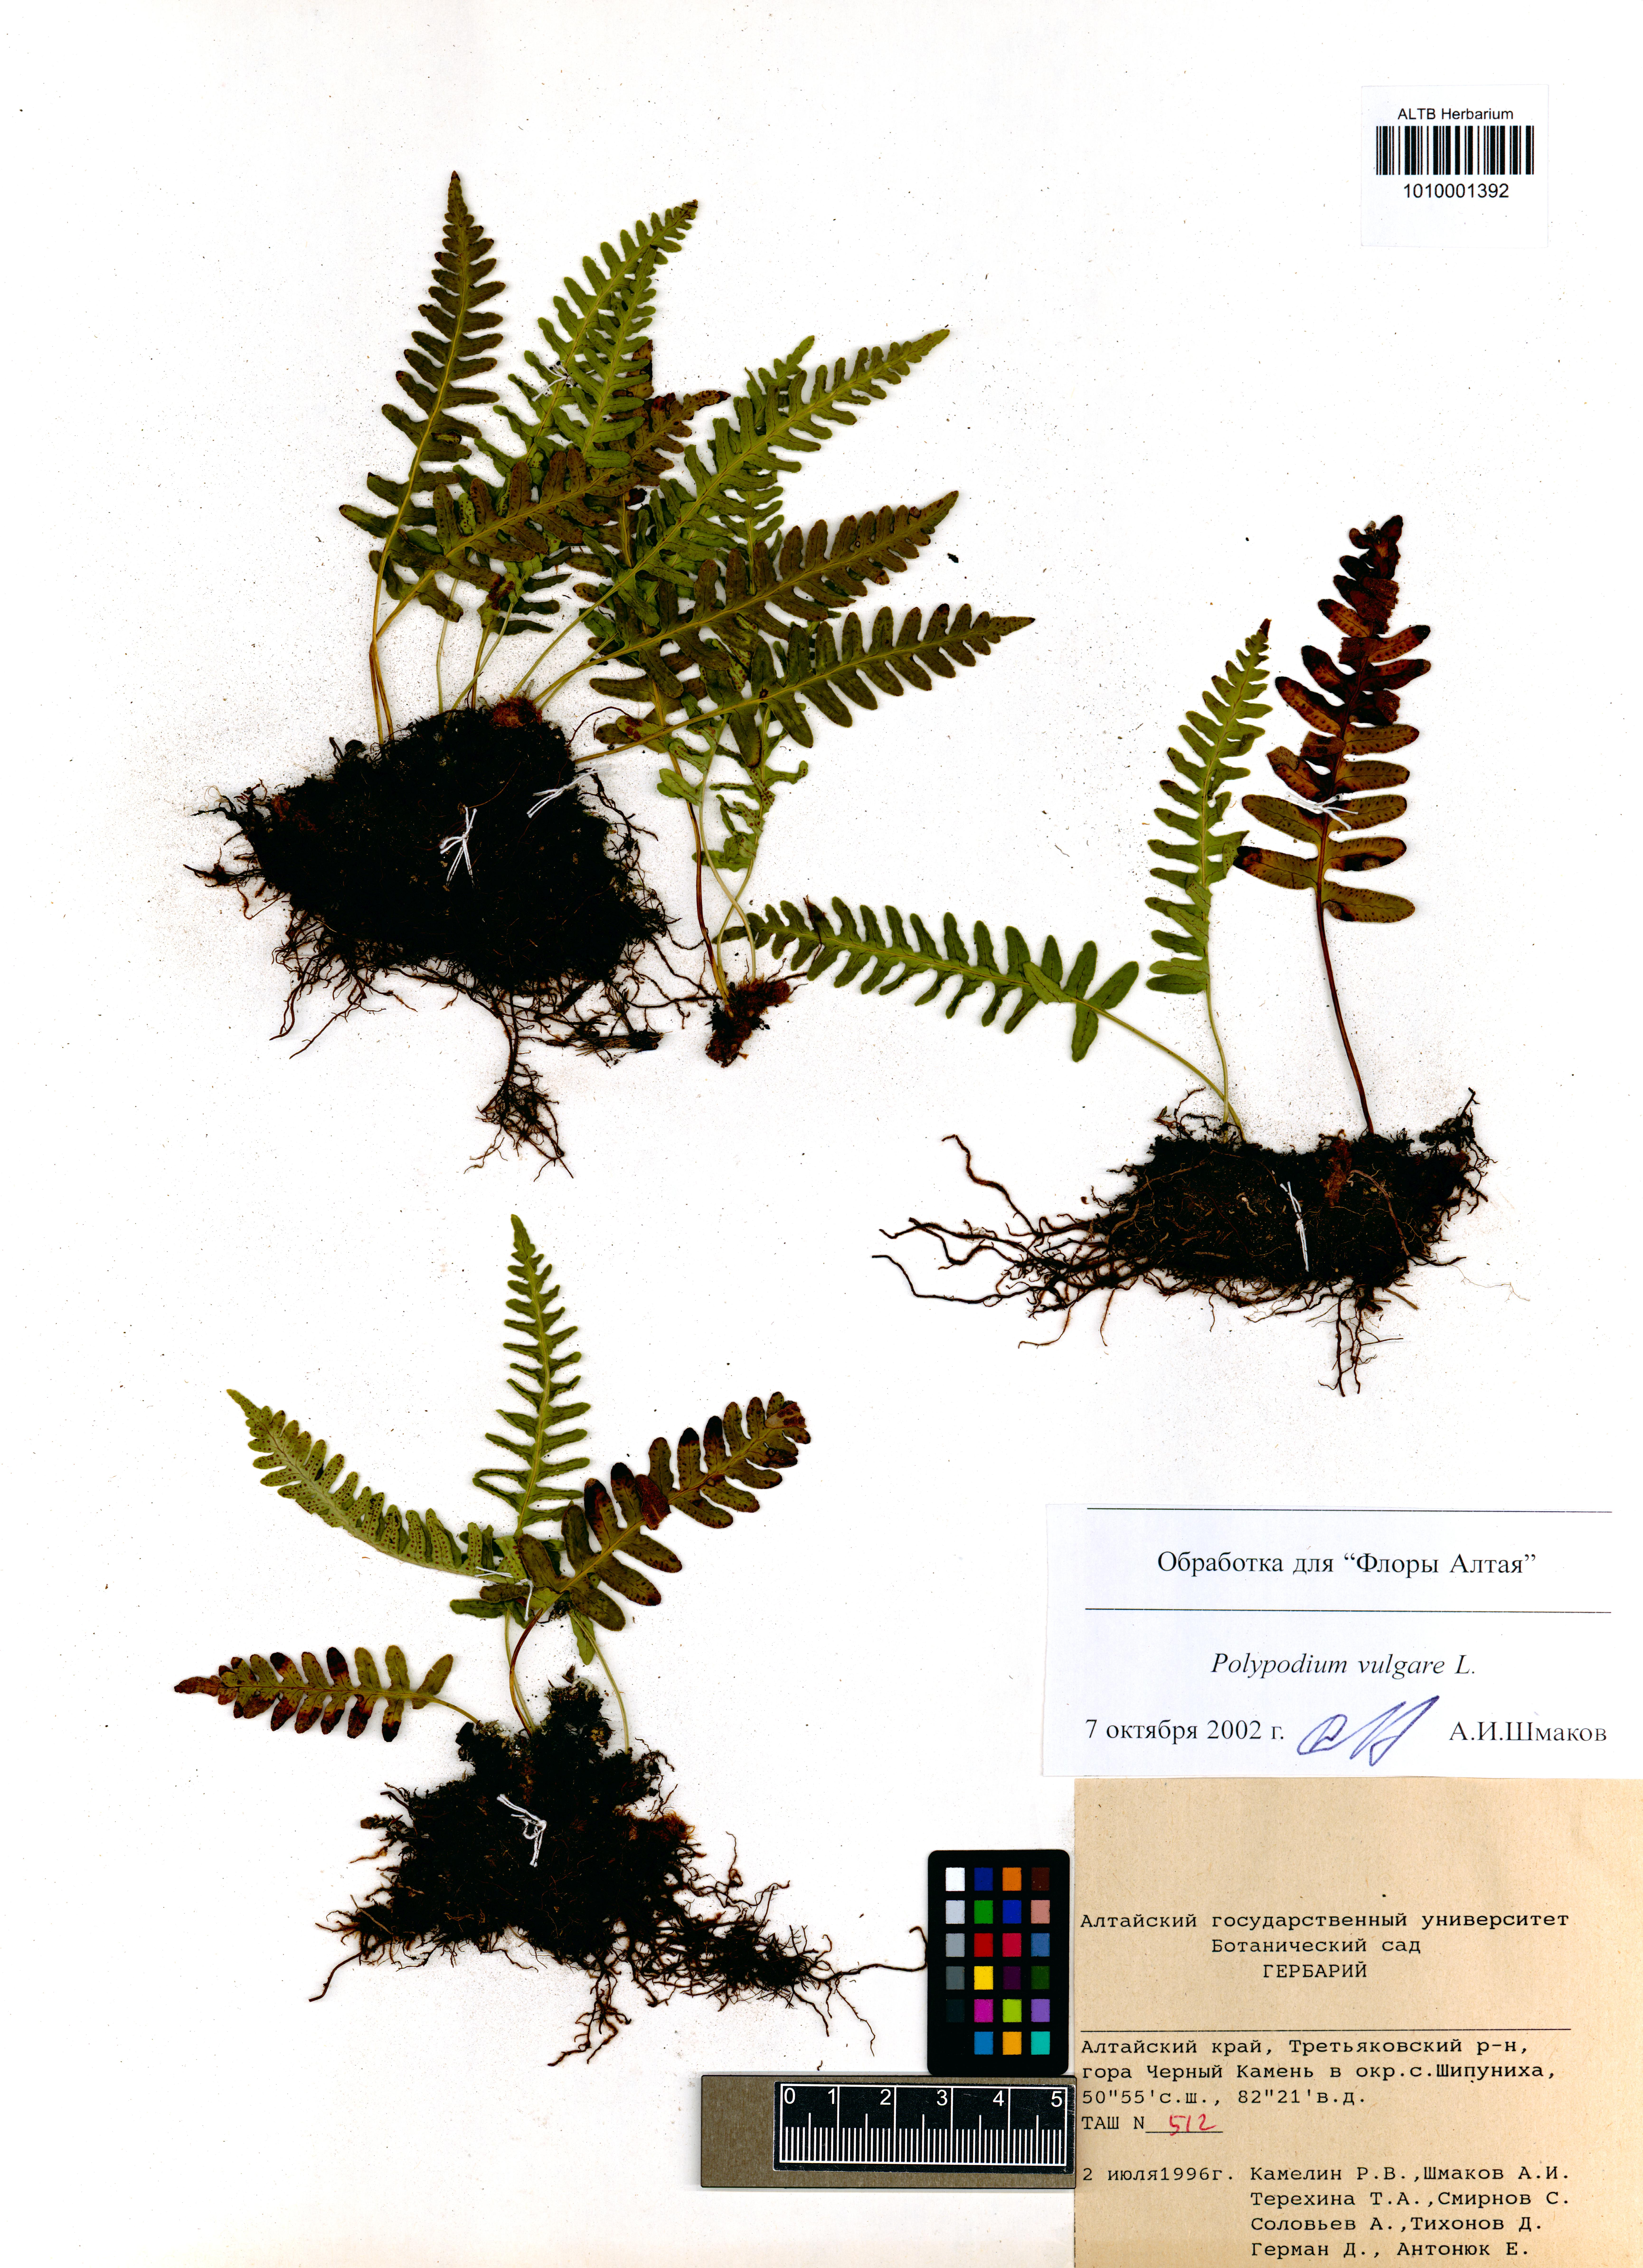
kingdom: Plantae
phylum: Tracheophyta
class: Polypodiopsida
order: Polypodiales
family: Polypodiaceae
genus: Polypodium
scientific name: Polypodium vulgare
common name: Common polypody
